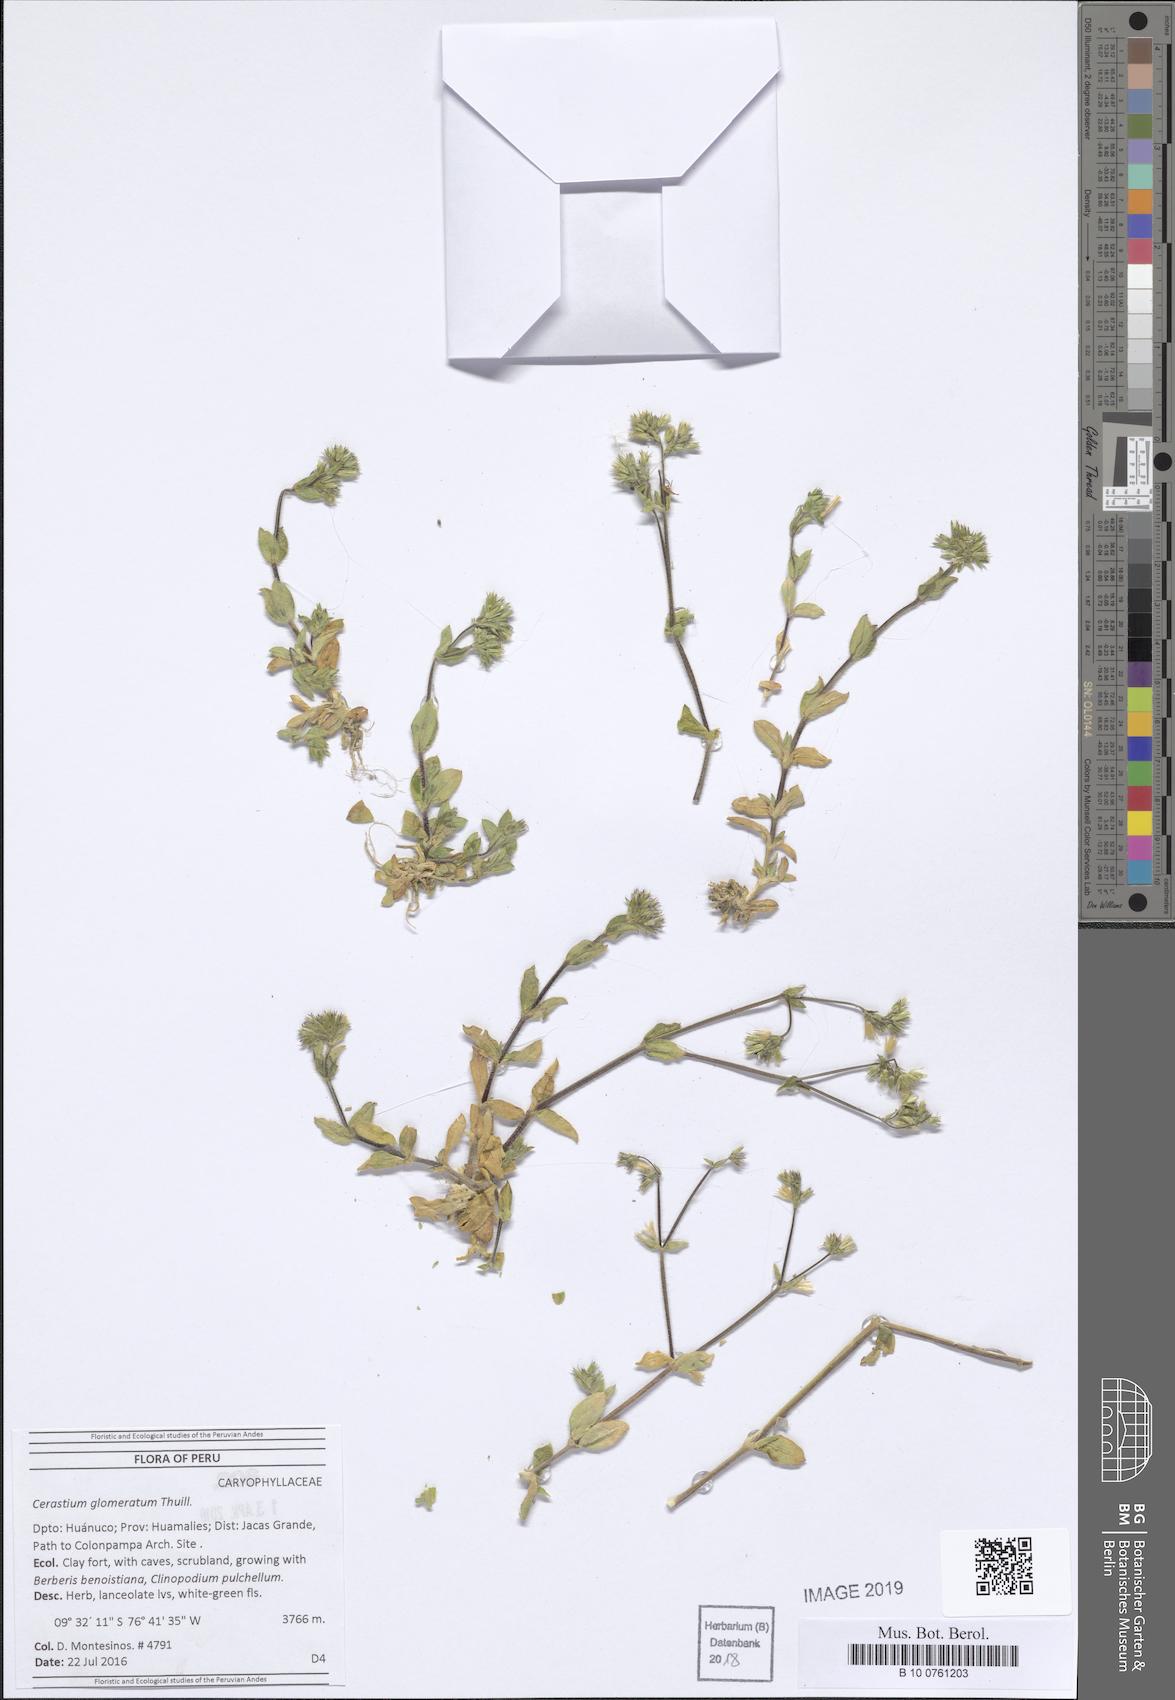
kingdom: Plantae
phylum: Tracheophyta
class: Magnoliopsida
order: Caryophyllales
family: Caryophyllaceae
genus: Cerastium
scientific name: Cerastium glomeratum
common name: Sticky chickweed
